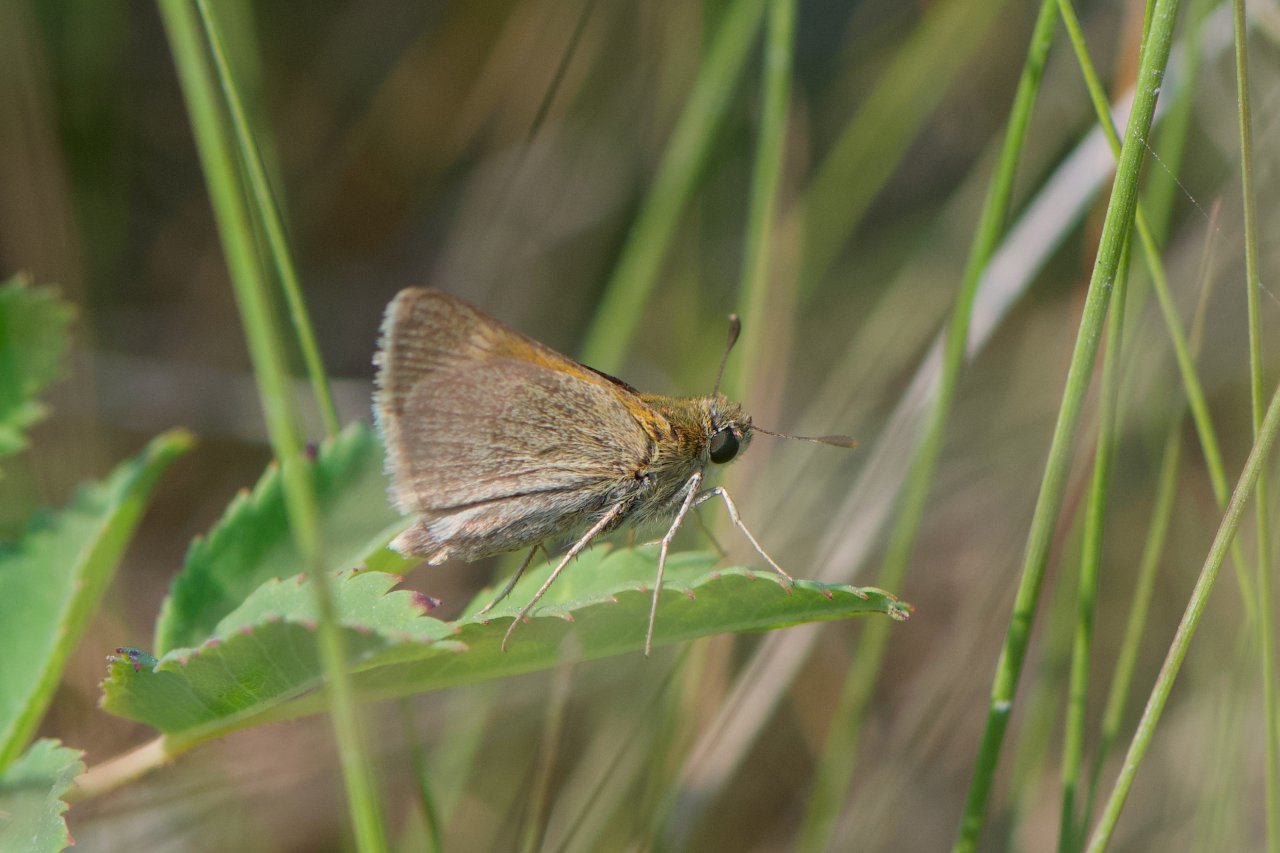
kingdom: Animalia
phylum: Arthropoda
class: Insecta
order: Lepidoptera
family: Hesperiidae
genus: Polites
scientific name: Polites themistocles
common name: Tawny-edged Skipper
